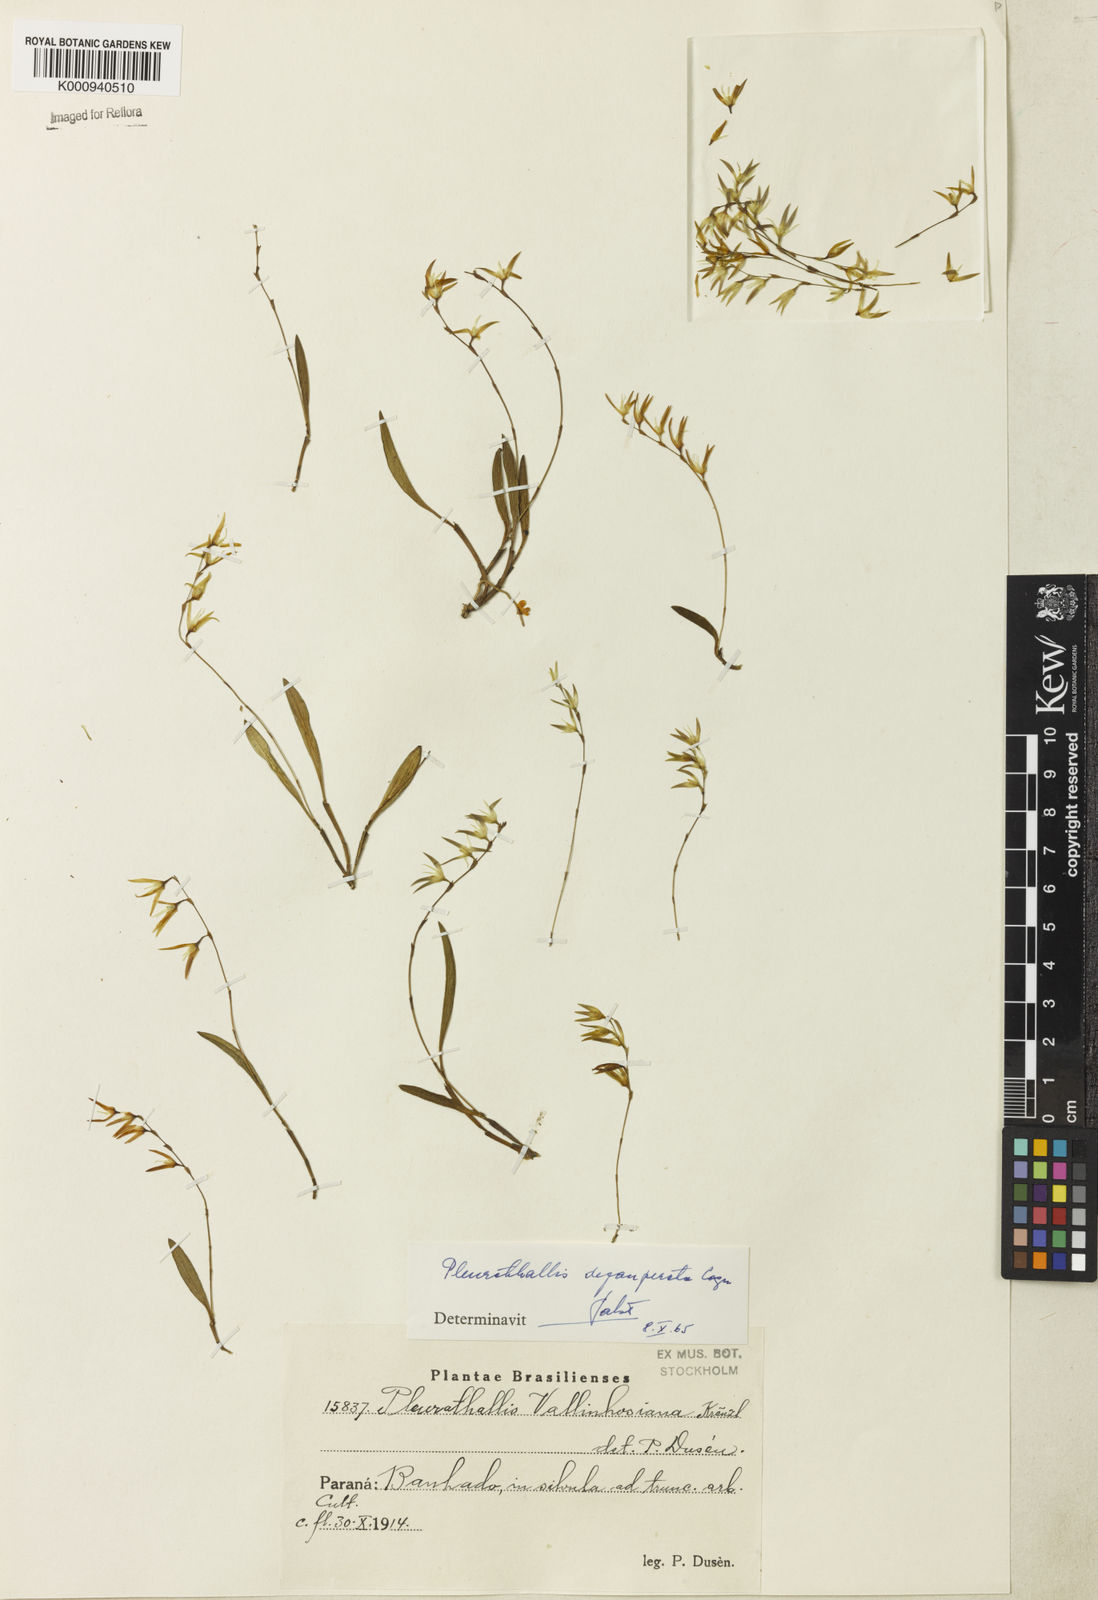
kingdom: Plantae
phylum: Tracheophyta
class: Liliopsida
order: Asparagales
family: Orchidaceae
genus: Anathallis
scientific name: Anathallis linearifolia
